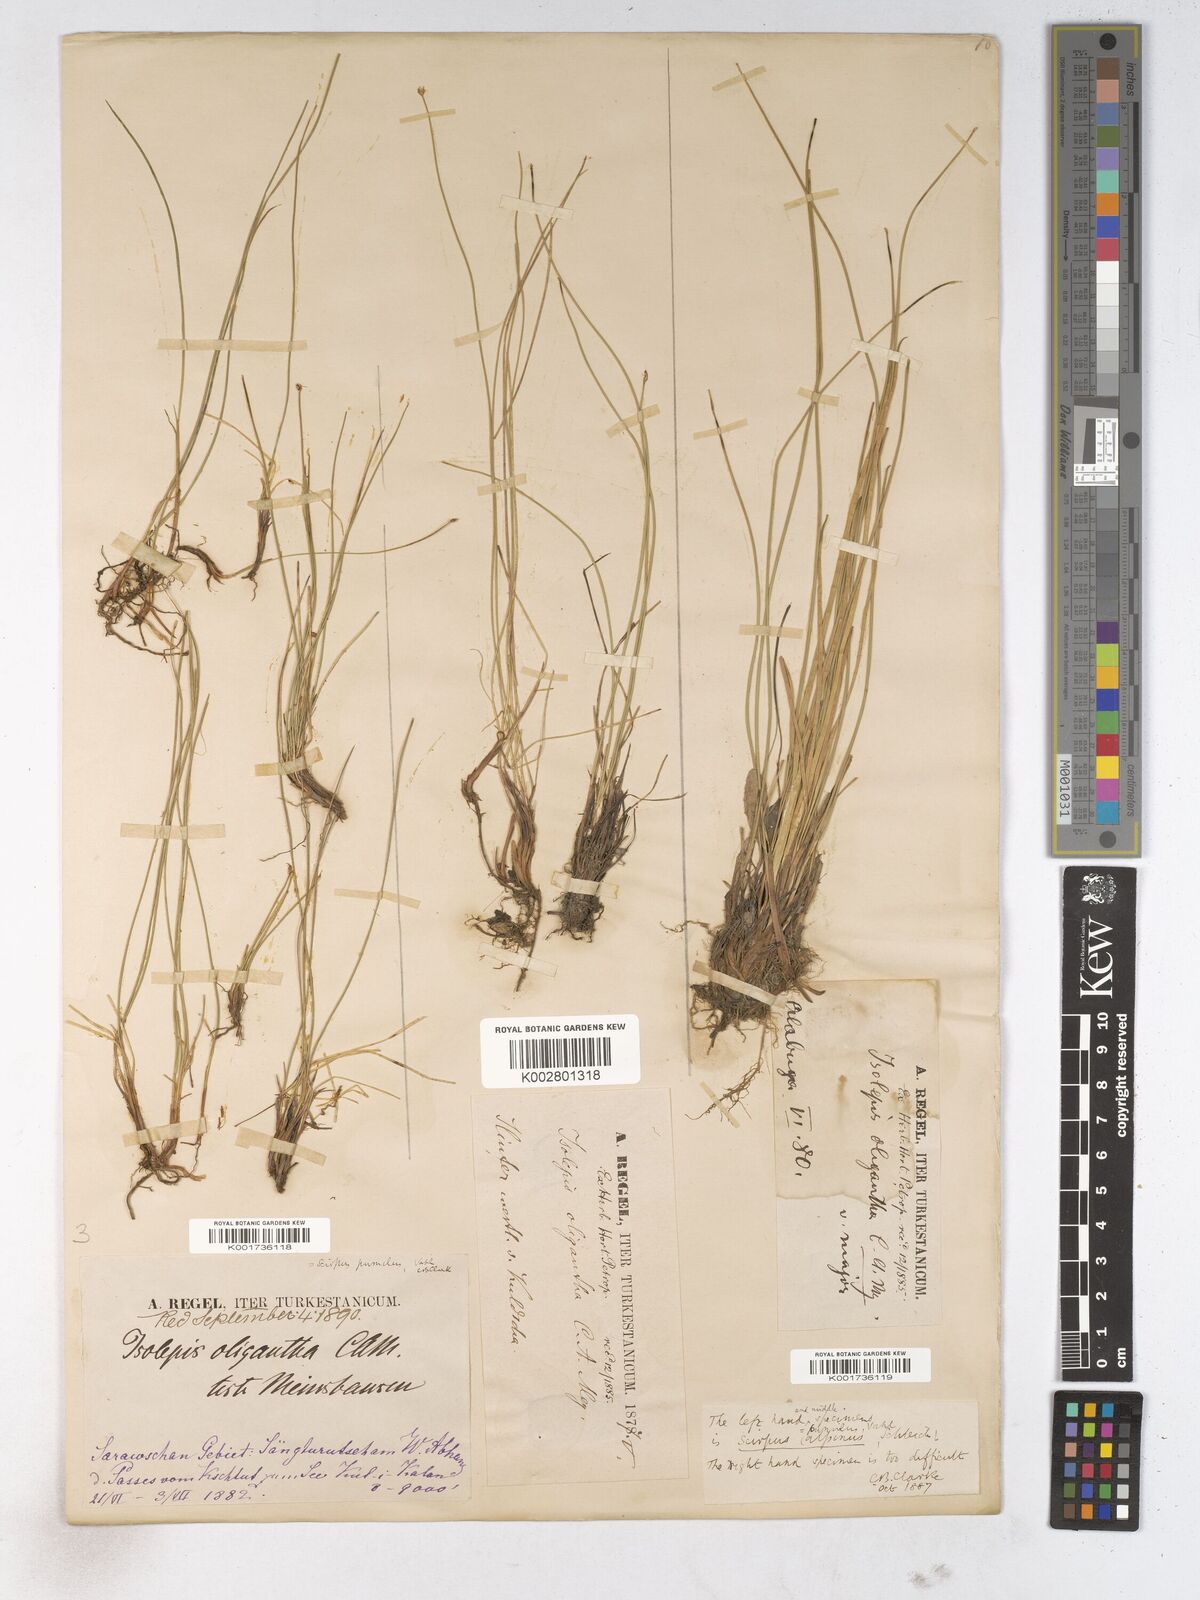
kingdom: Plantae
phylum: Tracheophyta
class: Liliopsida
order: Poales
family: Cyperaceae
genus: Trichophorum
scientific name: Trichophorum pumilum
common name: Rolland's bulrush
